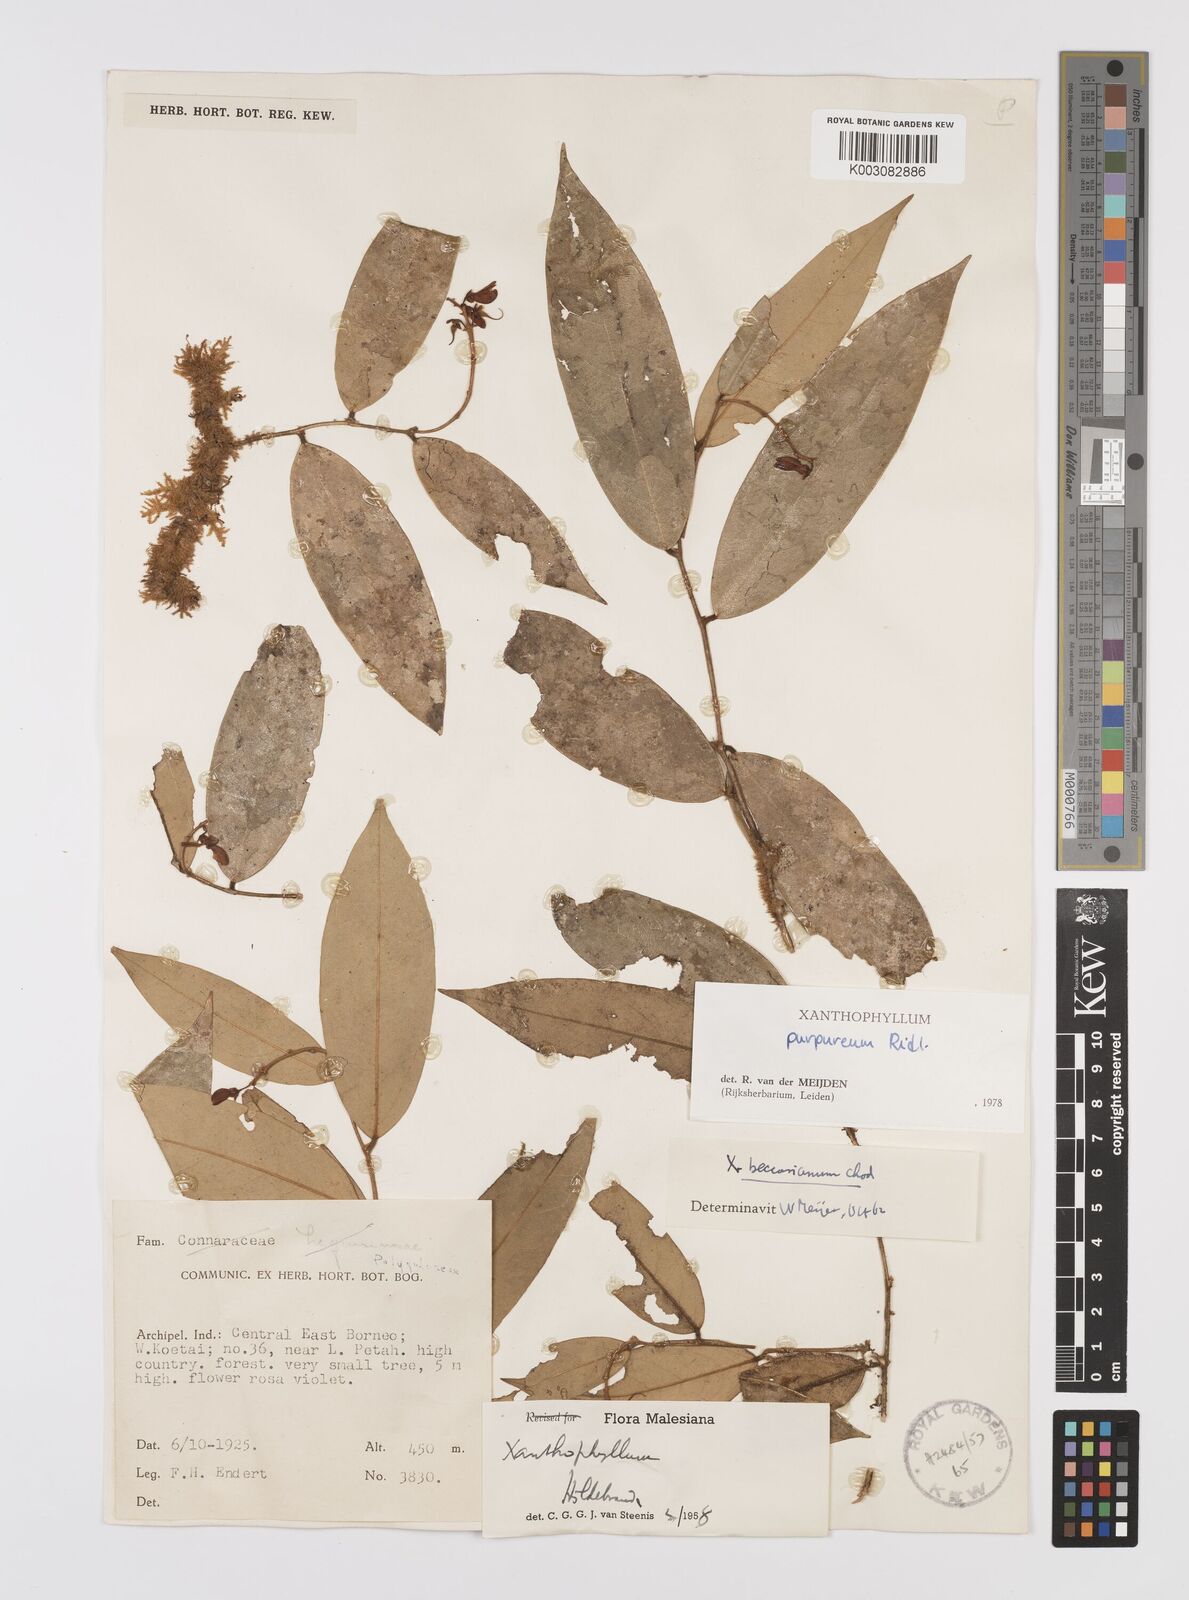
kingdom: Plantae
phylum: Tracheophyta
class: Magnoliopsida
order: Fabales
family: Polygalaceae
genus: Xanthophyllum
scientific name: Xanthophyllum purpureum
